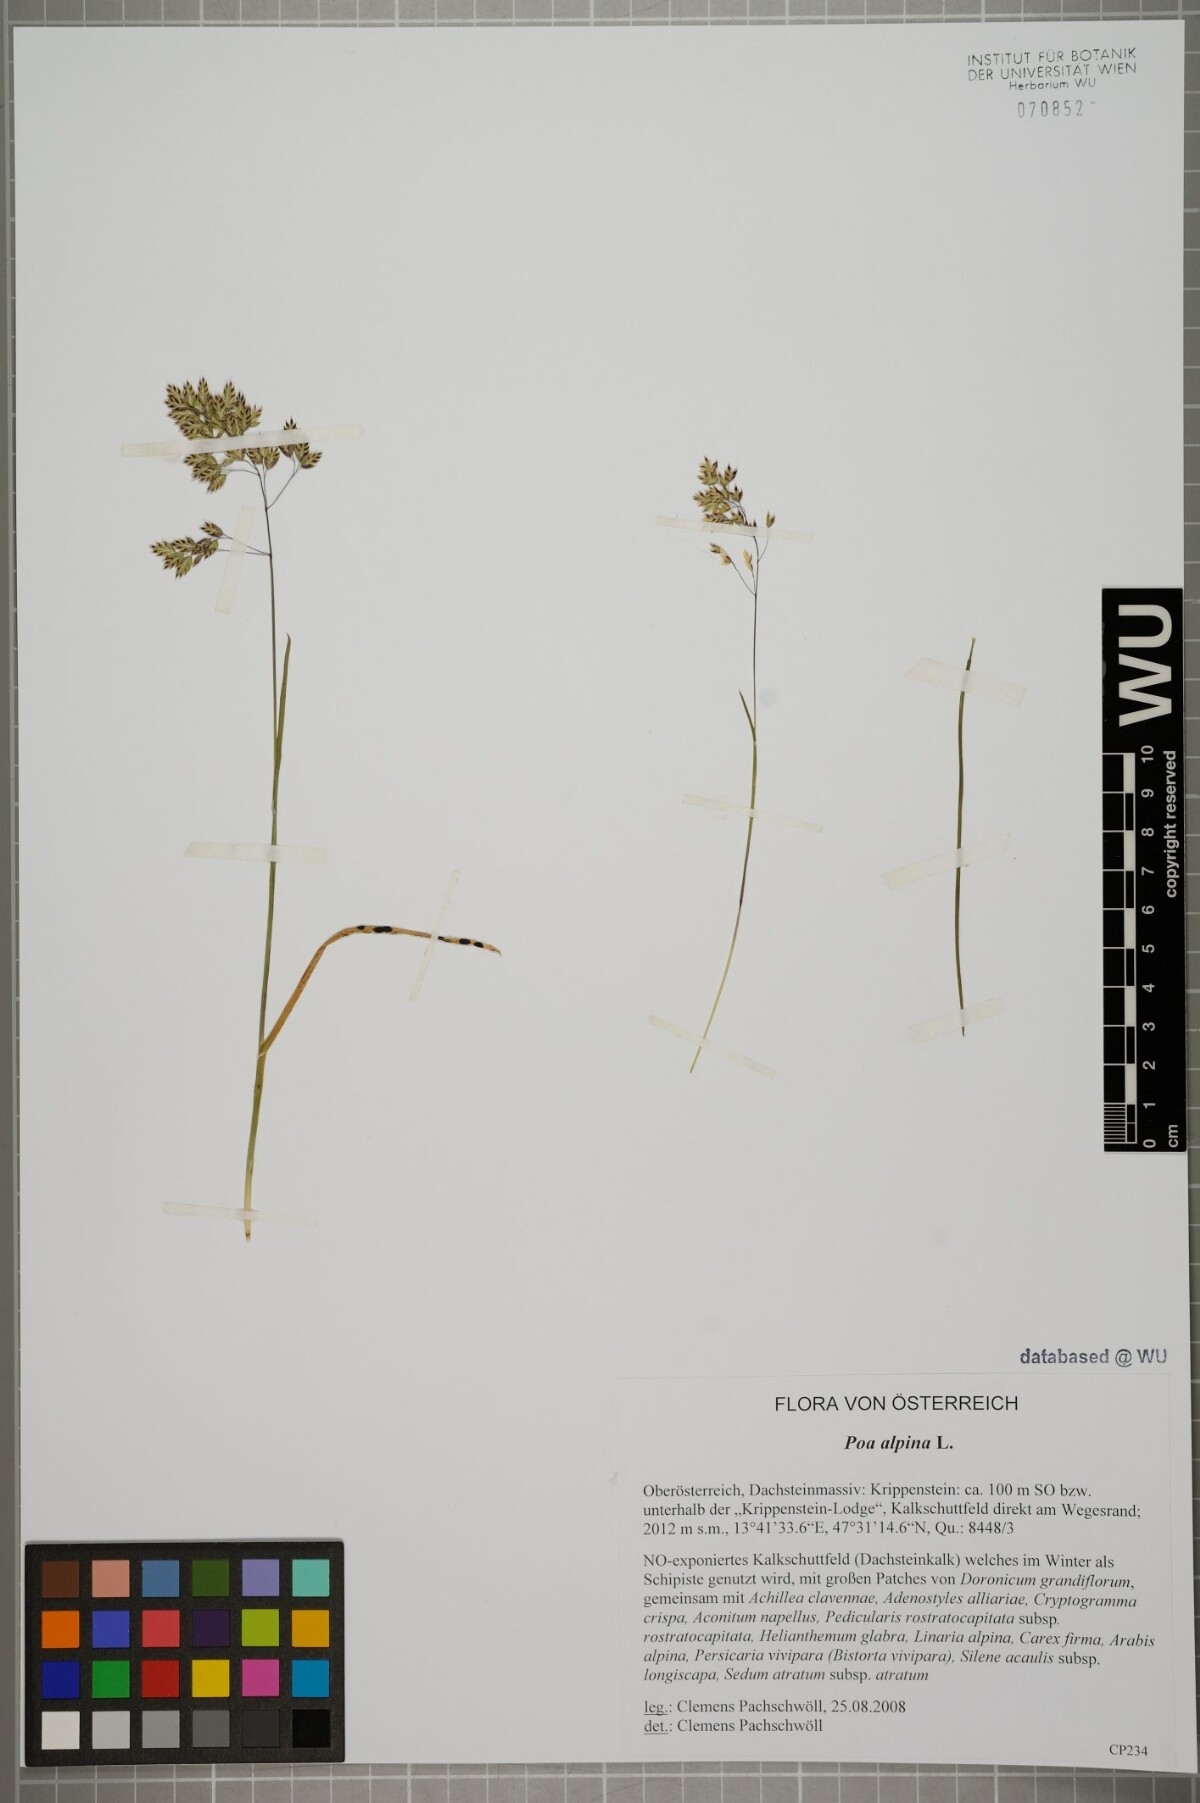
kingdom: Plantae
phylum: Tracheophyta
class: Liliopsida
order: Poales
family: Poaceae
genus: Poa
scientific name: Poa alpina
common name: Alpine bluegrass
